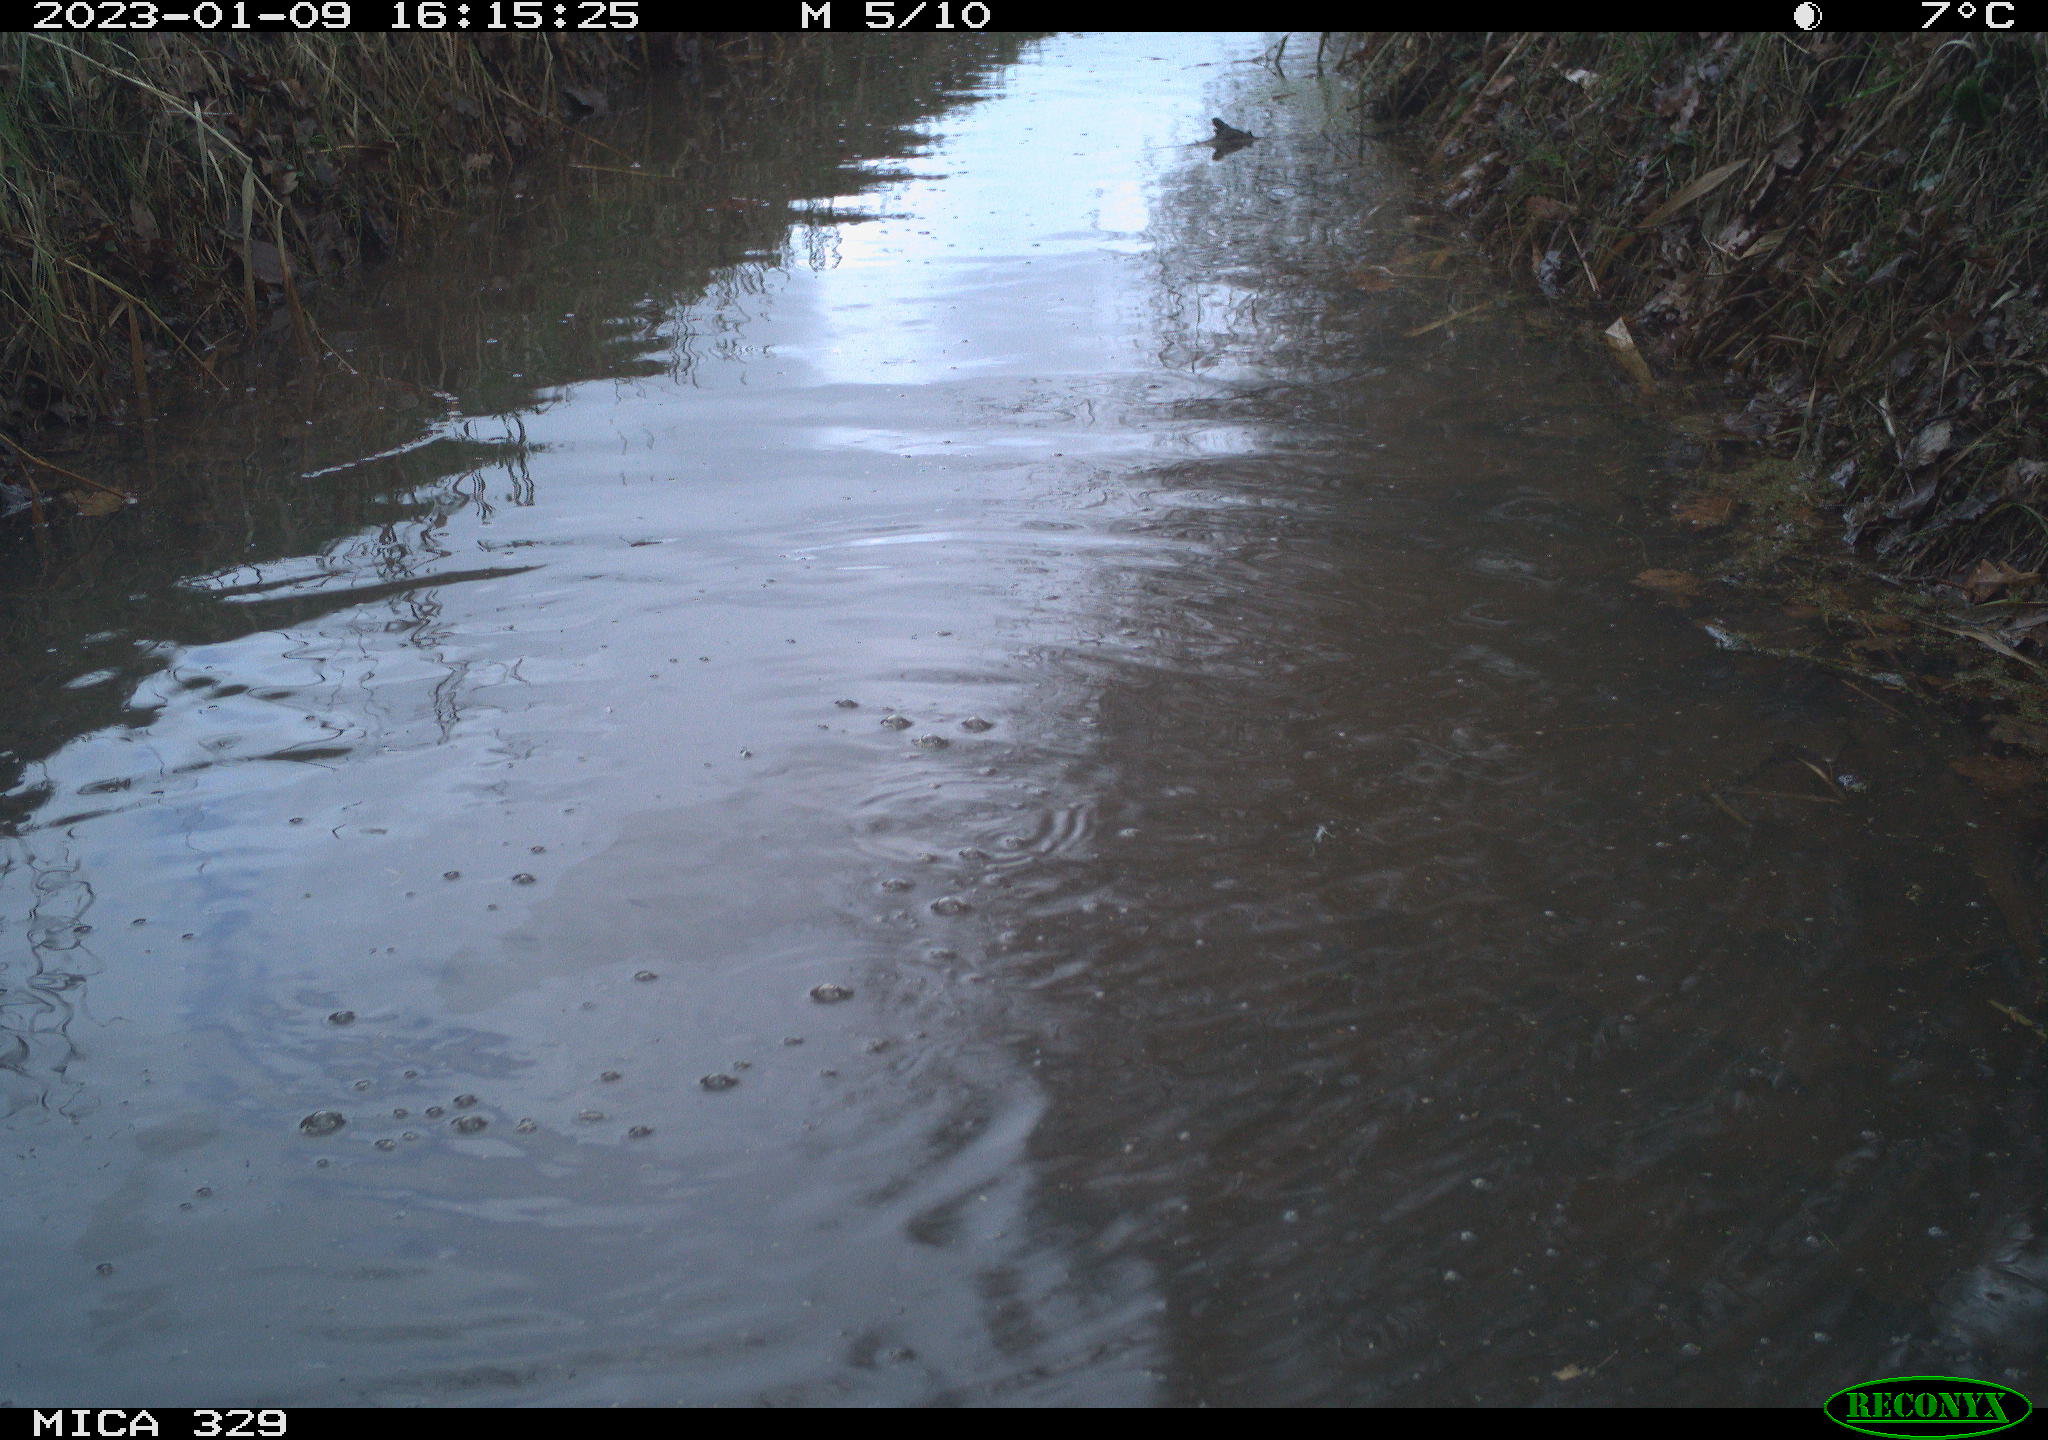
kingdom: Animalia
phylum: Chordata
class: Mammalia
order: Rodentia
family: Cricetidae
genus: Ondatra
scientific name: Ondatra zibethicus
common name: Muskrat
